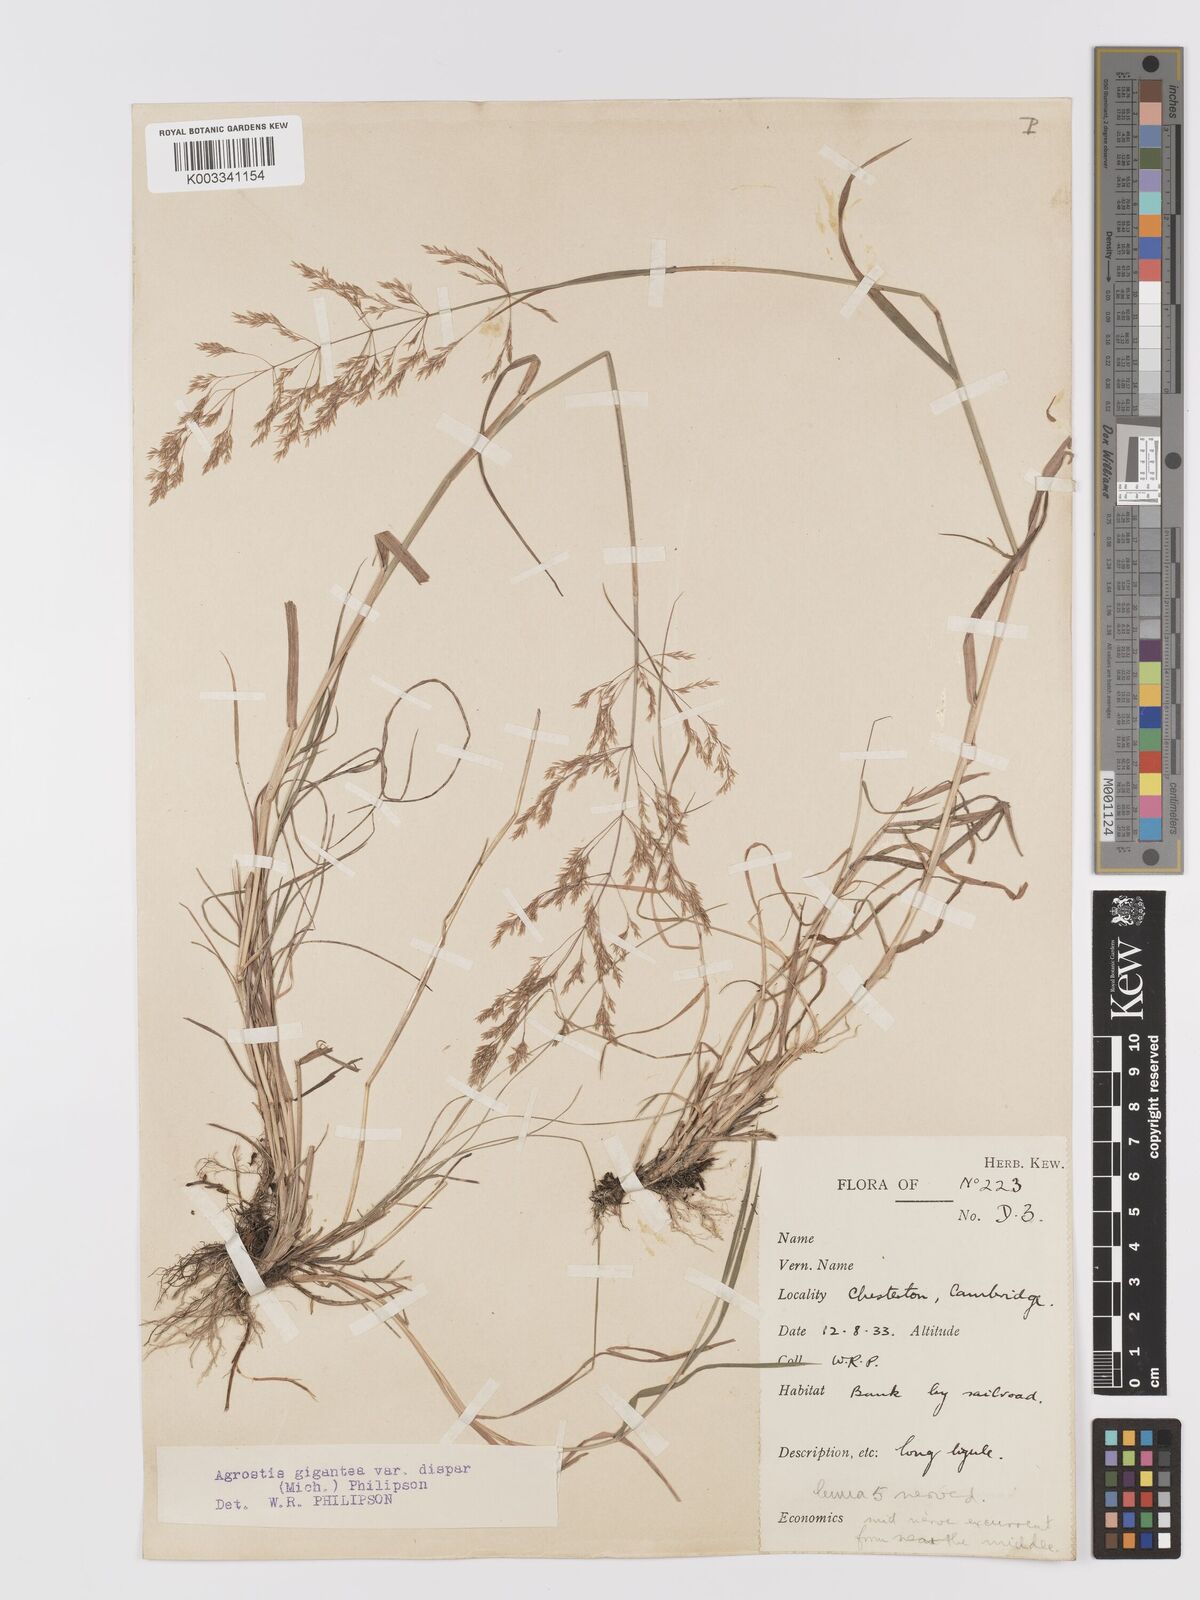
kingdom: Plantae
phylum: Tracheophyta
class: Liliopsida
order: Poales
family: Poaceae
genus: Agrostis
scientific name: Agrostis gigantea
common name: Black bent
